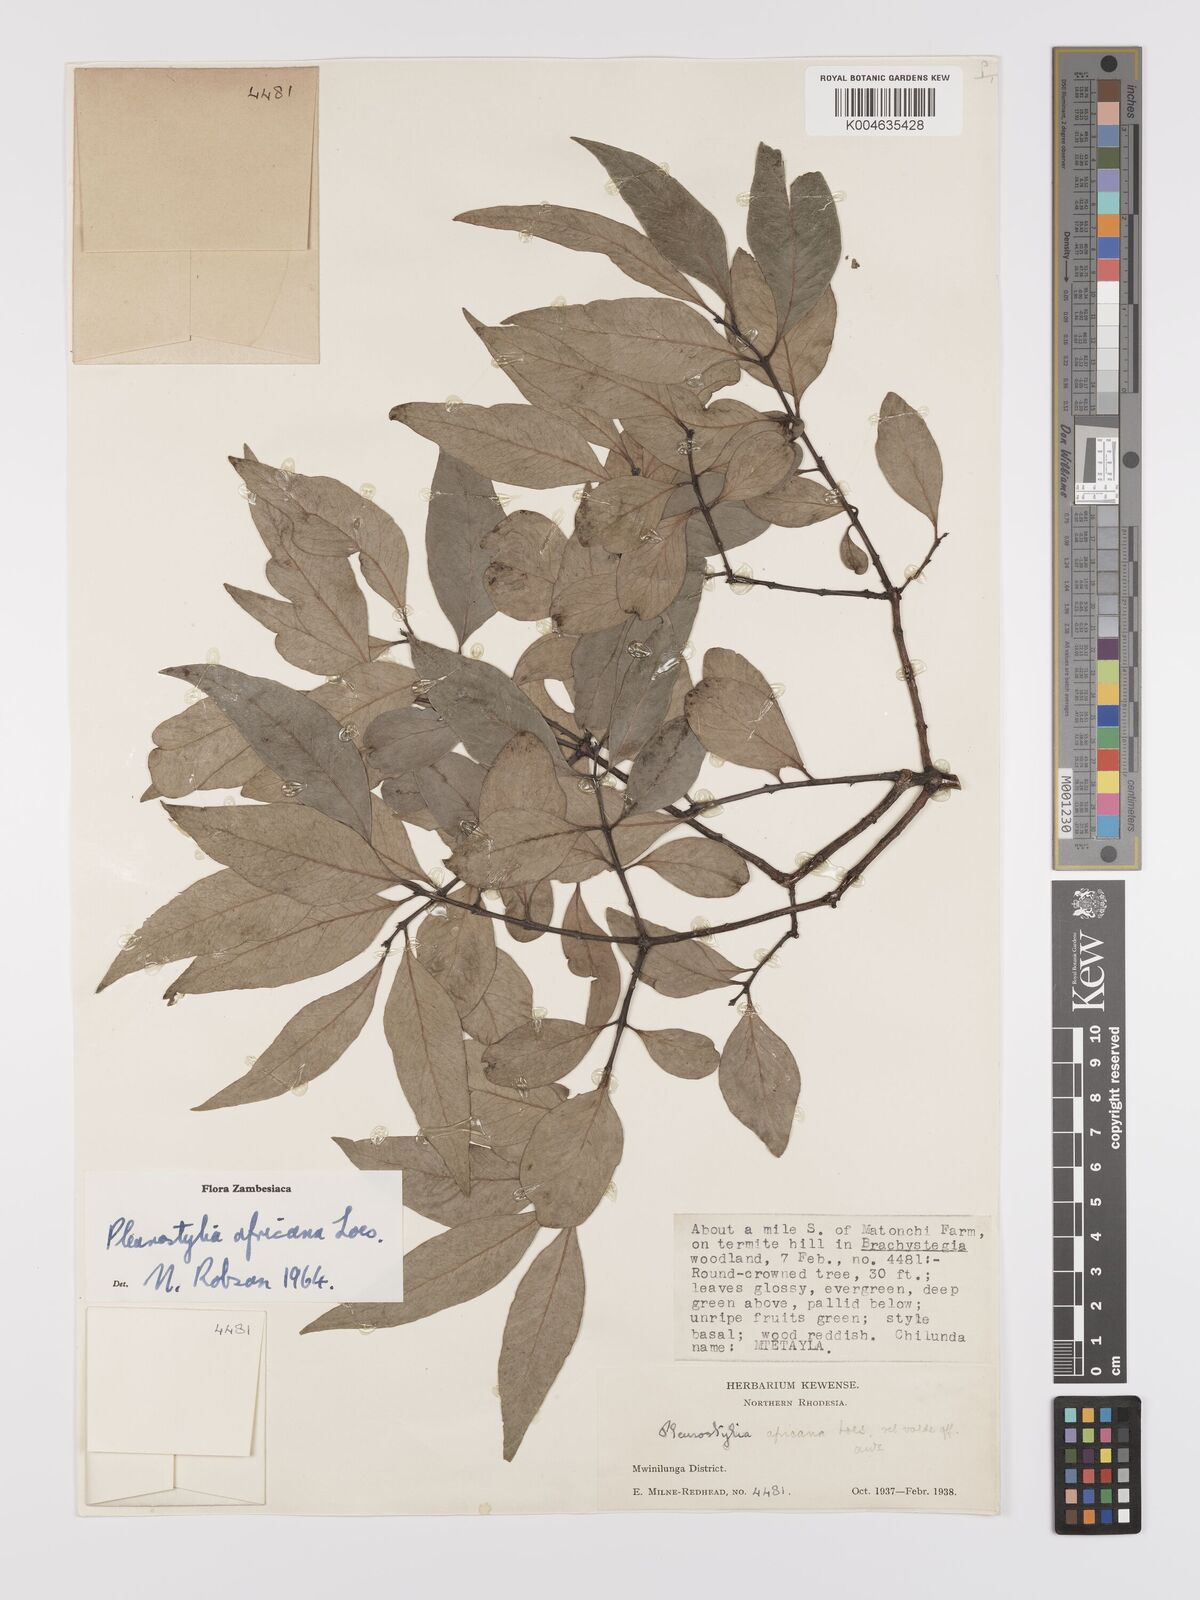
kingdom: Plantae
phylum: Tracheophyta
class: Magnoliopsida
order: Celastrales
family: Celastraceae
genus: Pleurostylia
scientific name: Pleurostylia africana
